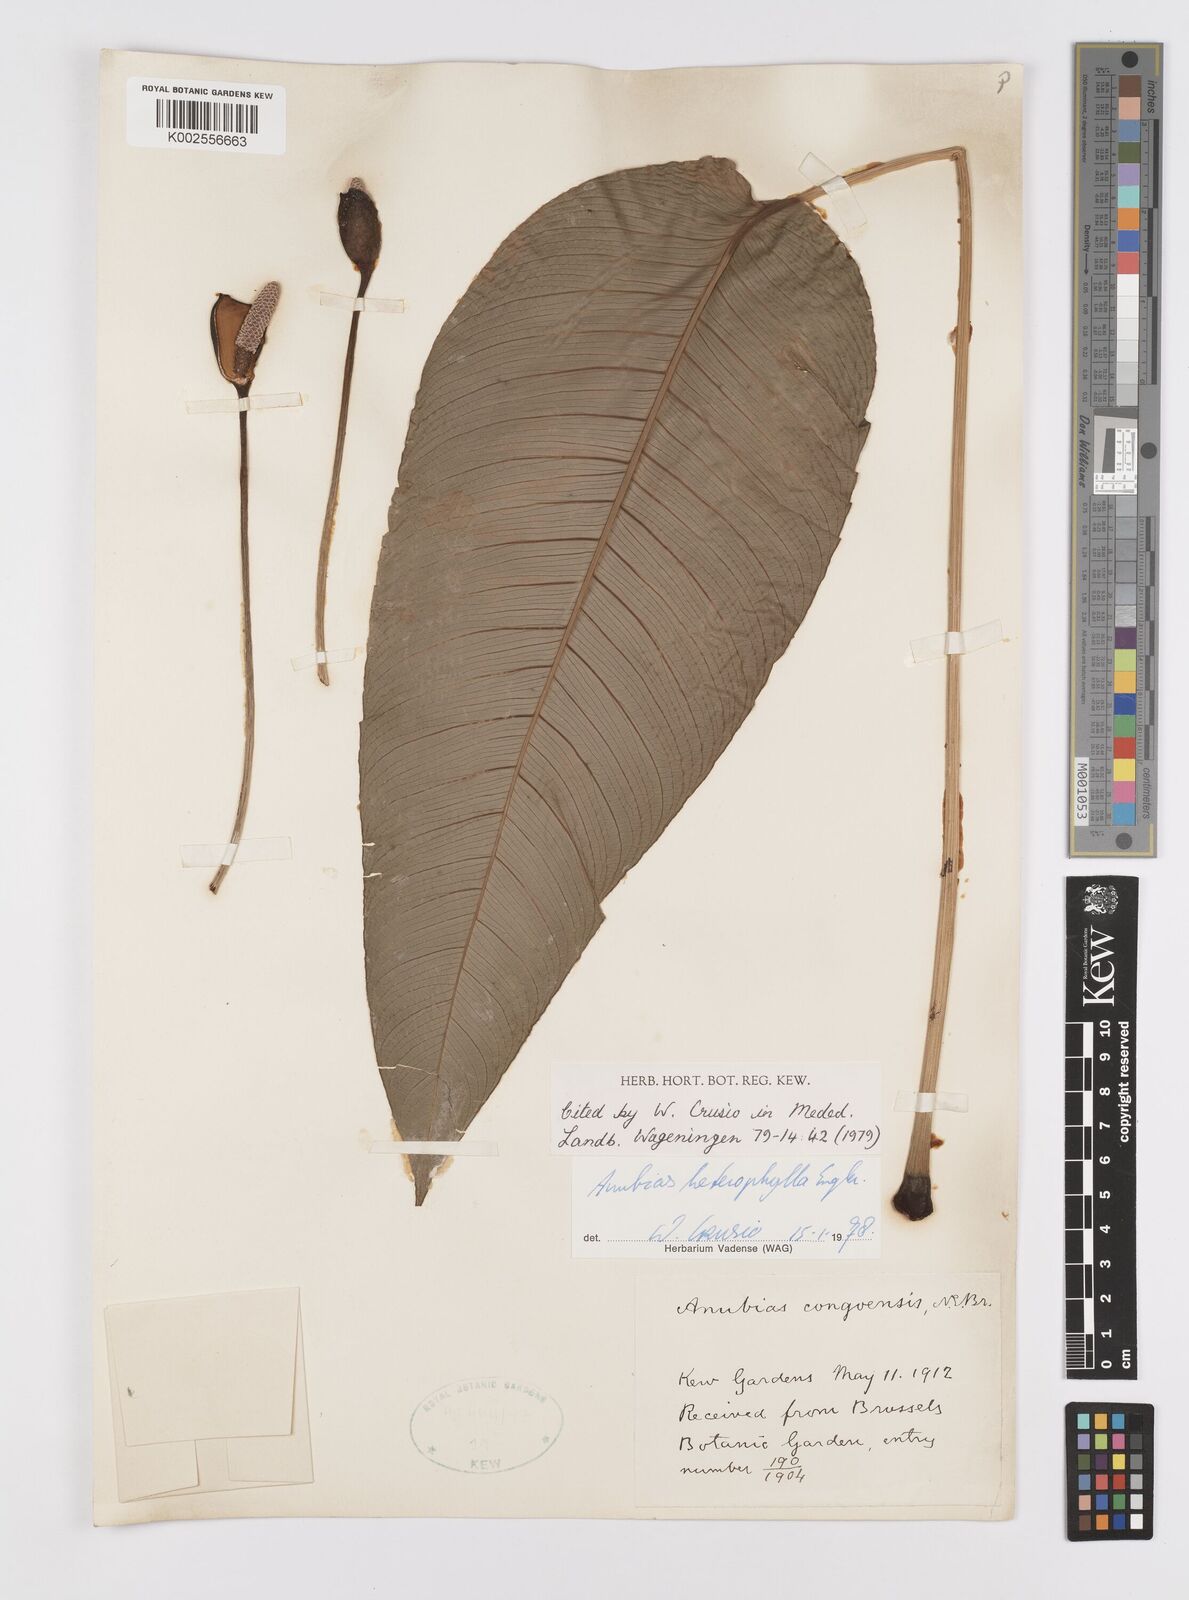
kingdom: Plantae
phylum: Tracheophyta
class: Liliopsida
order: Alismatales
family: Araceae
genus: Anubias
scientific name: Anubias heterophylla
